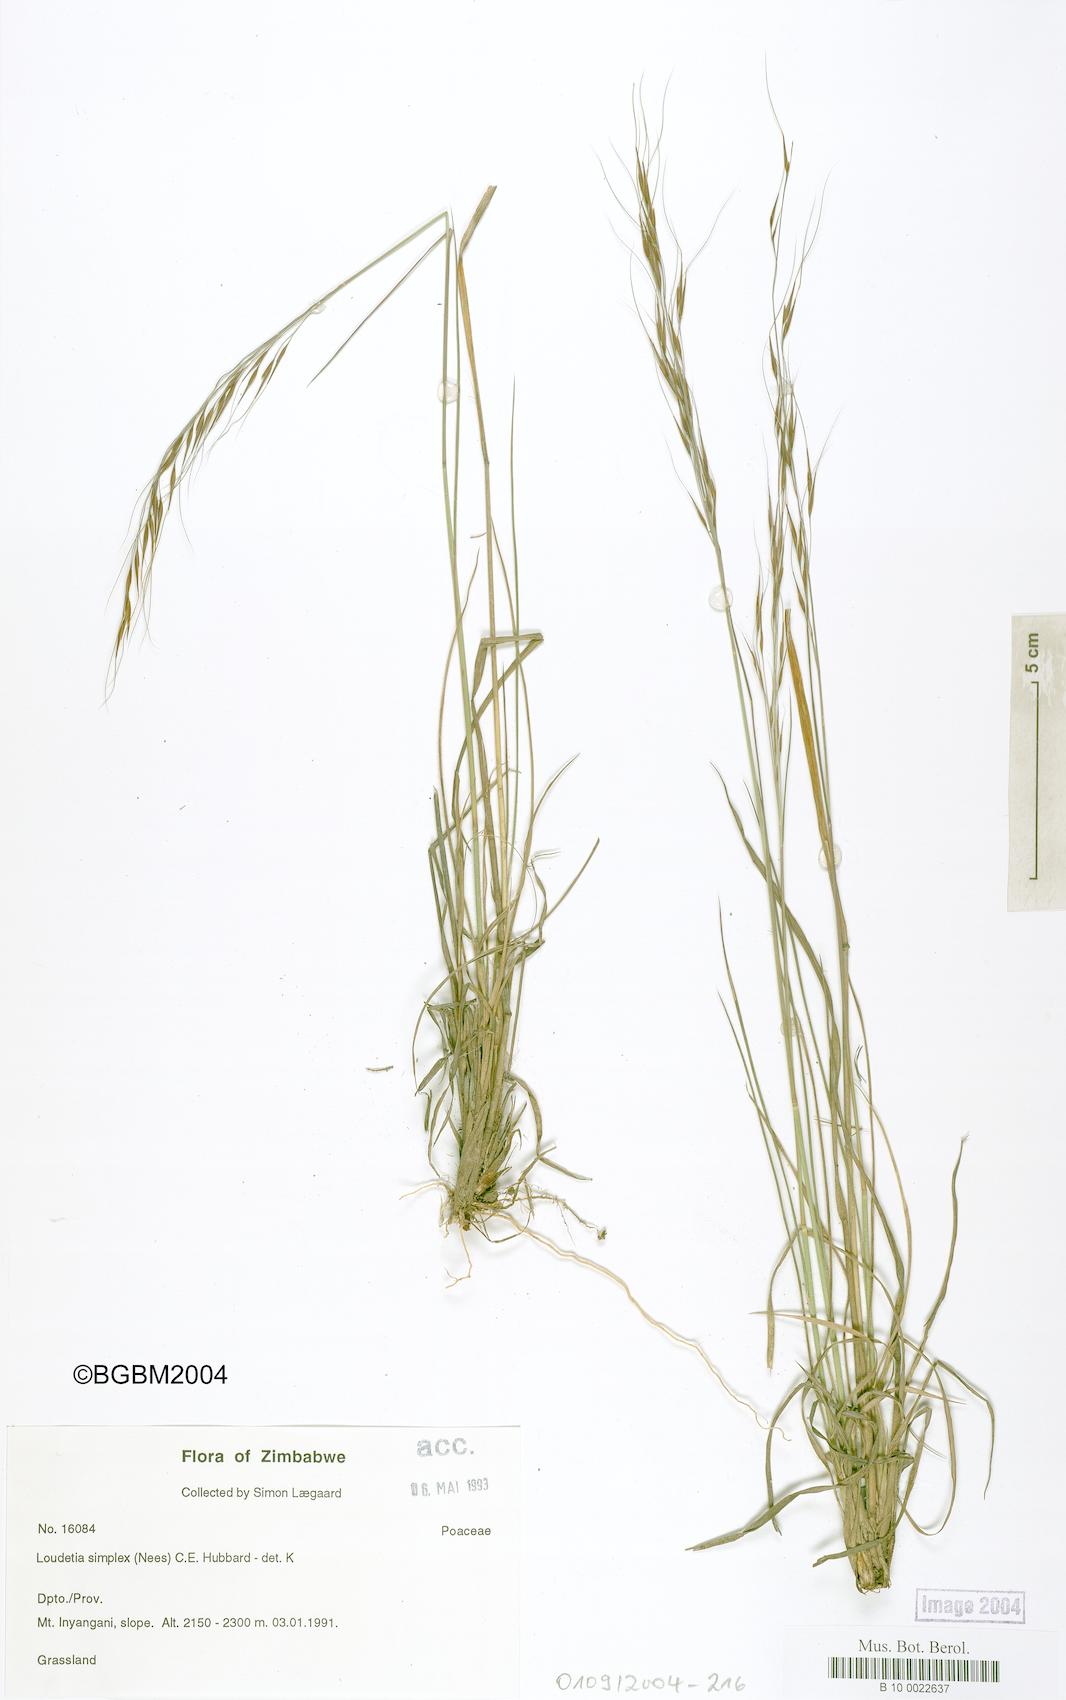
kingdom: Plantae
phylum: Tracheophyta
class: Liliopsida
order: Poales
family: Poaceae
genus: Loudetia
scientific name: Loudetia simplex
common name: Common russet grass
